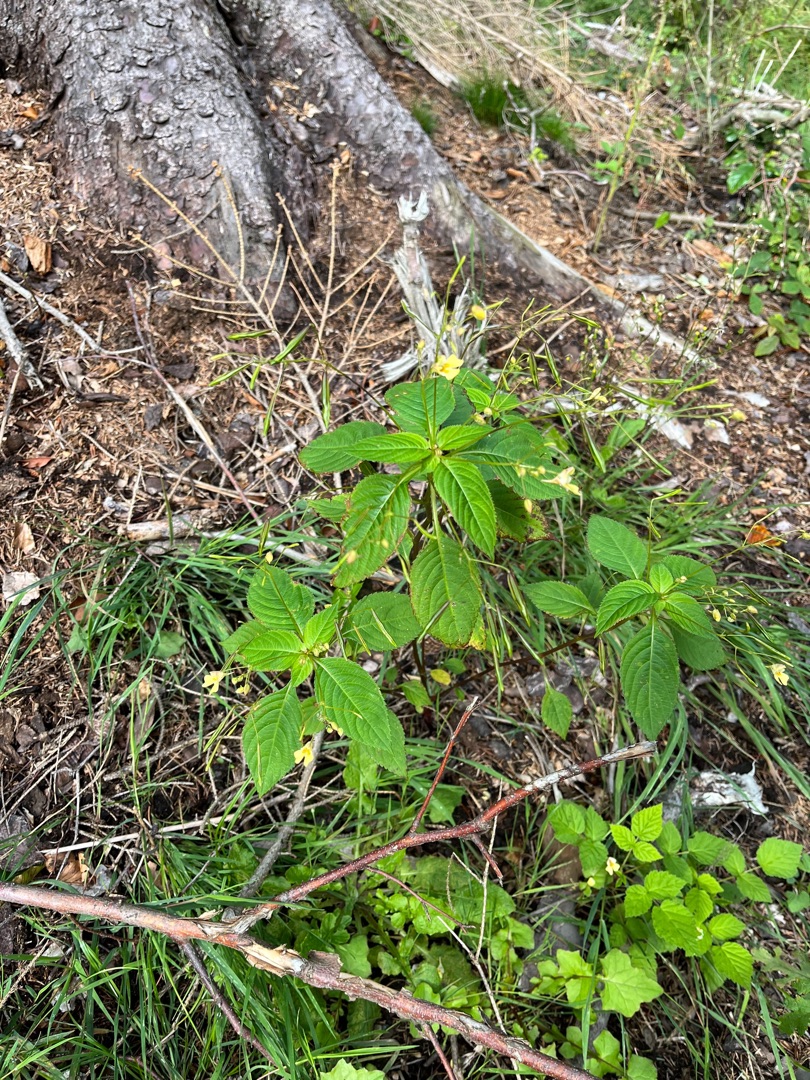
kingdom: Plantae
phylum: Tracheophyta
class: Magnoliopsida
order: Ericales
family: Balsaminaceae
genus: Impatiens
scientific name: Impatiens parviflora
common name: Småblomstret balsamin
